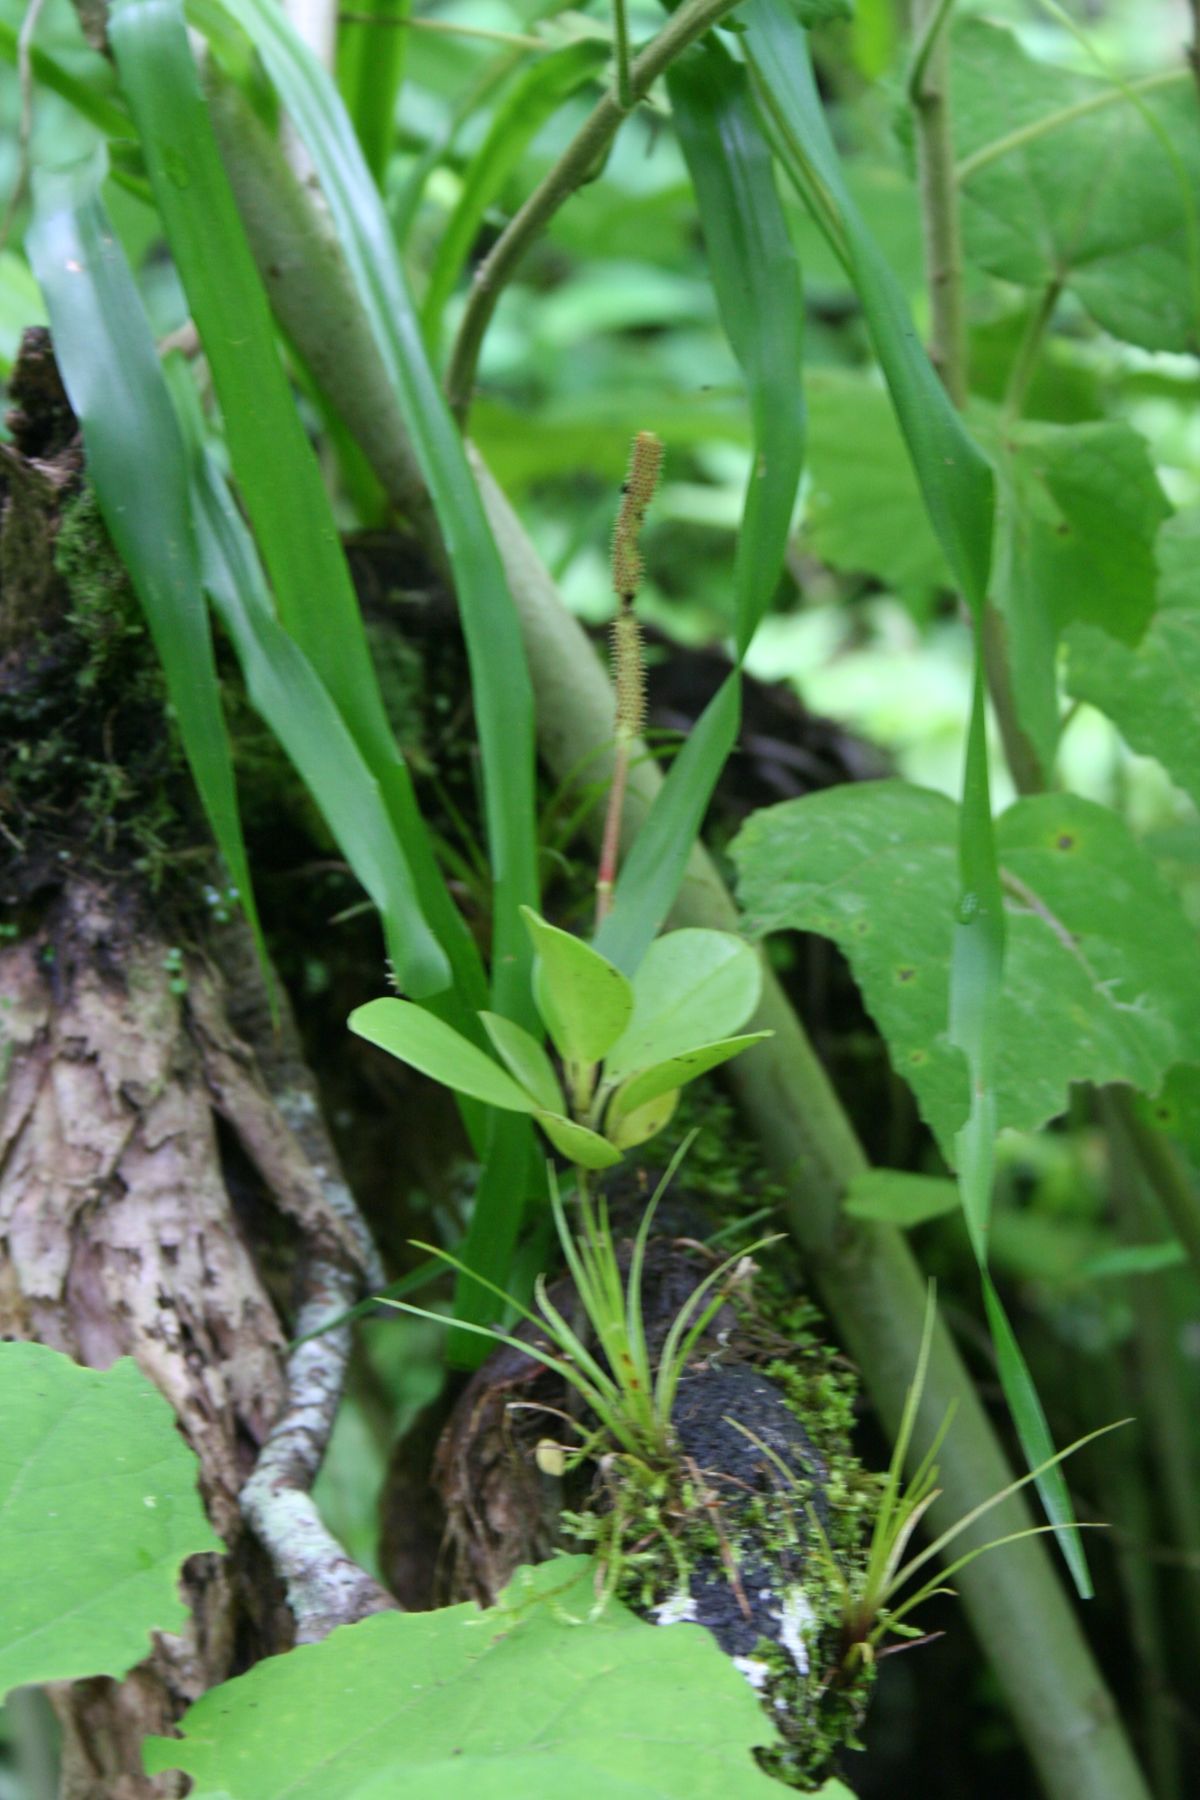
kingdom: Plantae
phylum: Tracheophyta
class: Magnoliopsida
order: Piperales
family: Piperaceae
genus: Peperomia
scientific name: Peperomia
